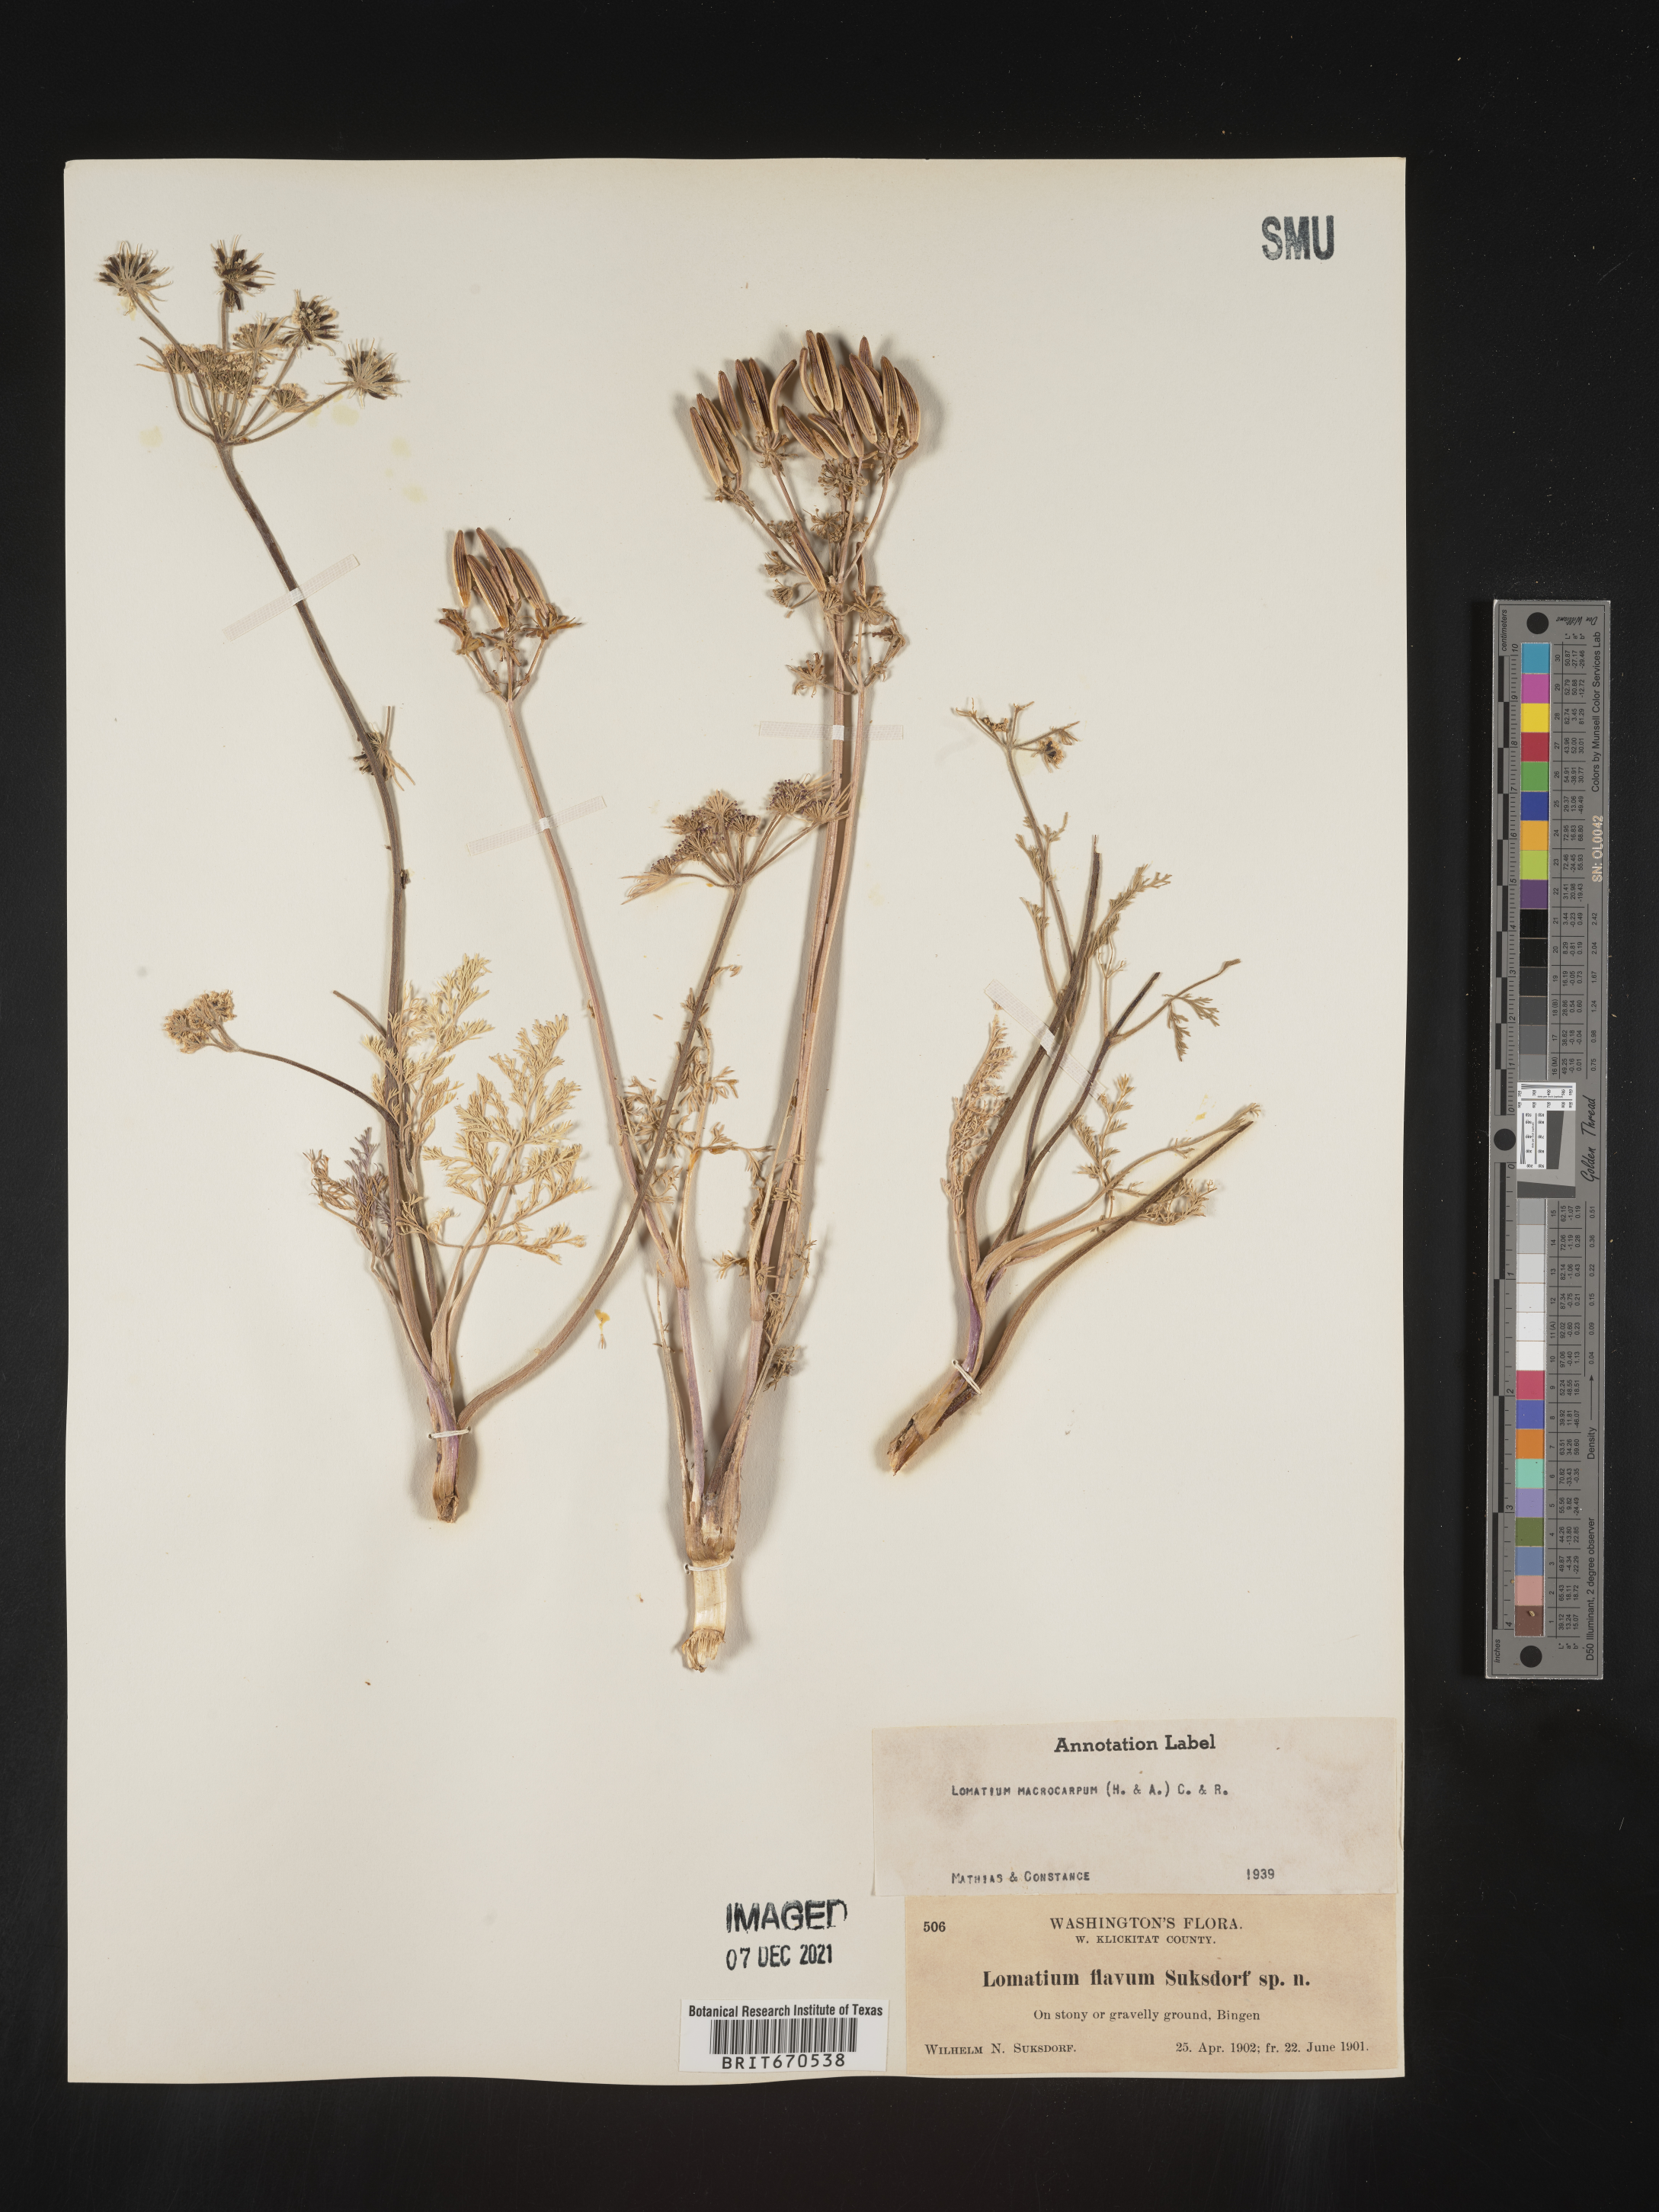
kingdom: Plantae
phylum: Tracheophyta
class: Magnoliopsida
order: Apiales
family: Apiaceae
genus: Lomatium
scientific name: Lomatium macrocarpum
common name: Big-seed biscuitroot
